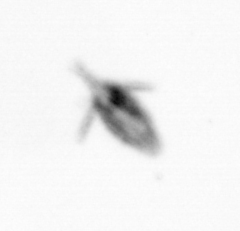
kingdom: Animalia
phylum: Arthropoda
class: Copepoda
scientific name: Copepoda
